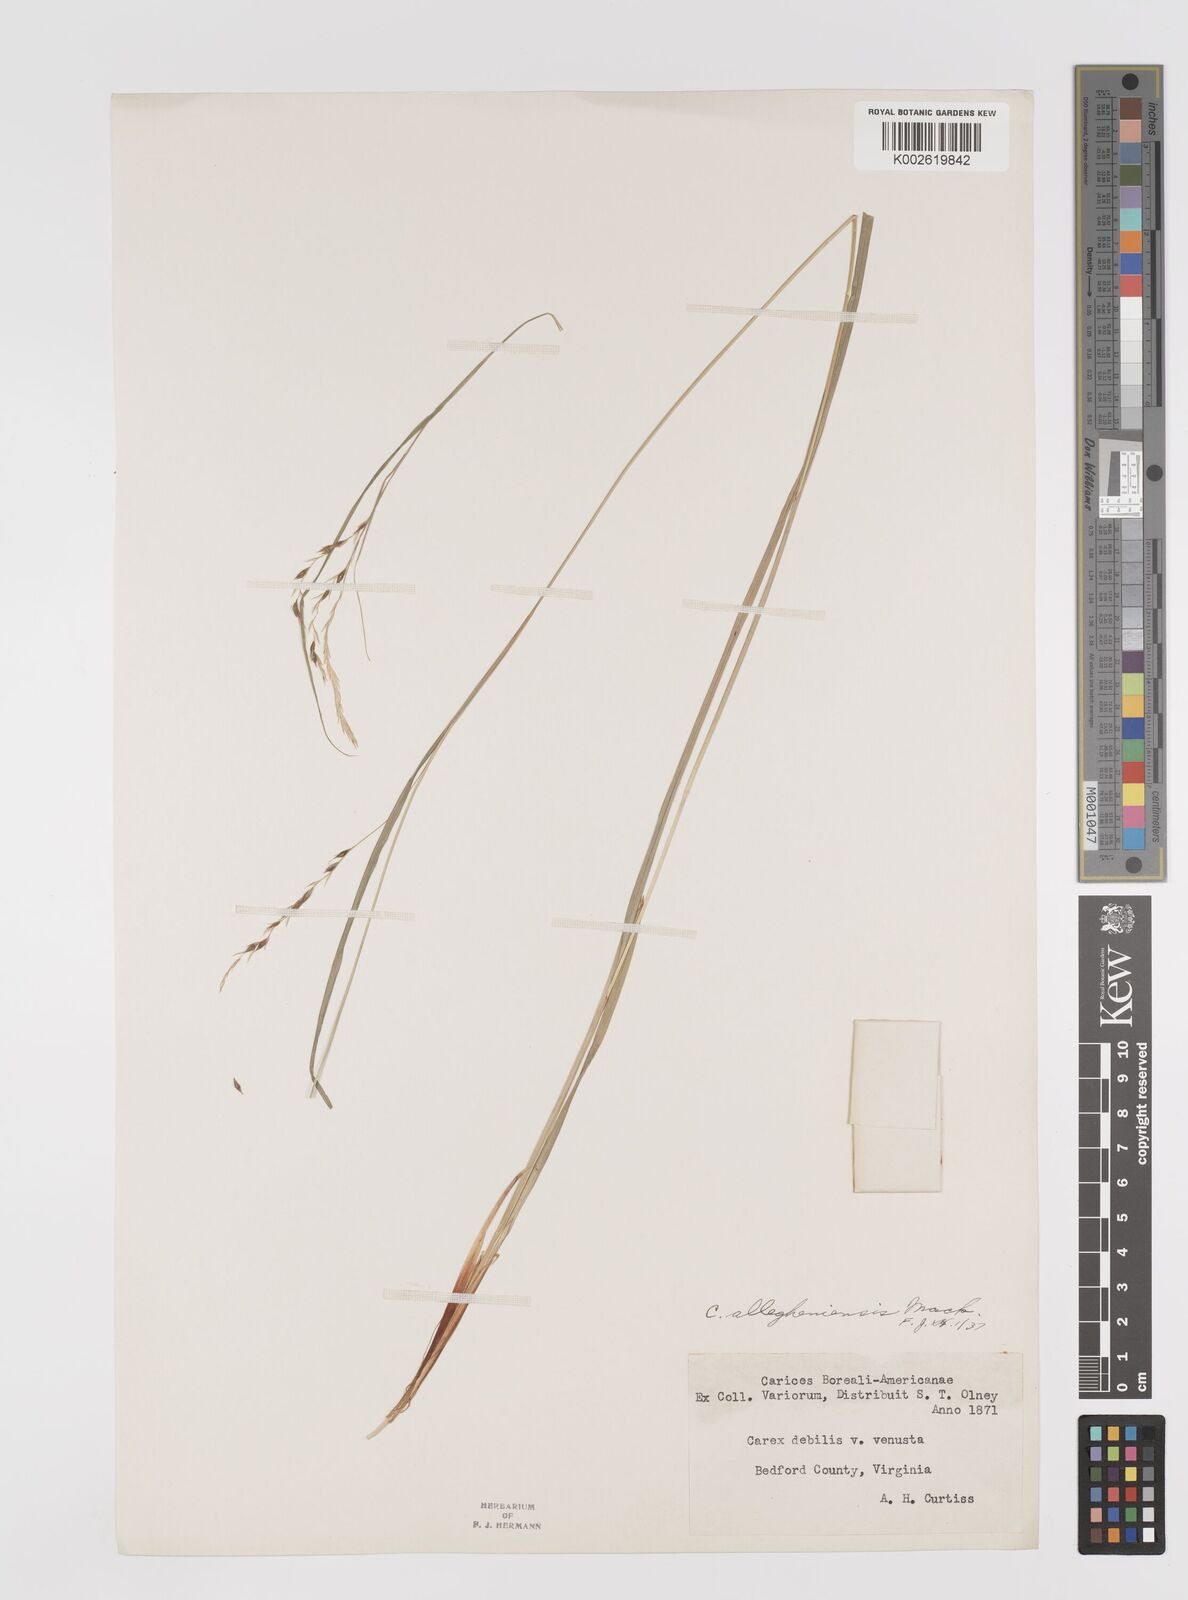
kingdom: Plantae
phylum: Tracheophyta
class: Liliopsida
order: Poales
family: Cyperaceae
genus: Carex
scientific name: Carex debilis
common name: White-edge sedge
